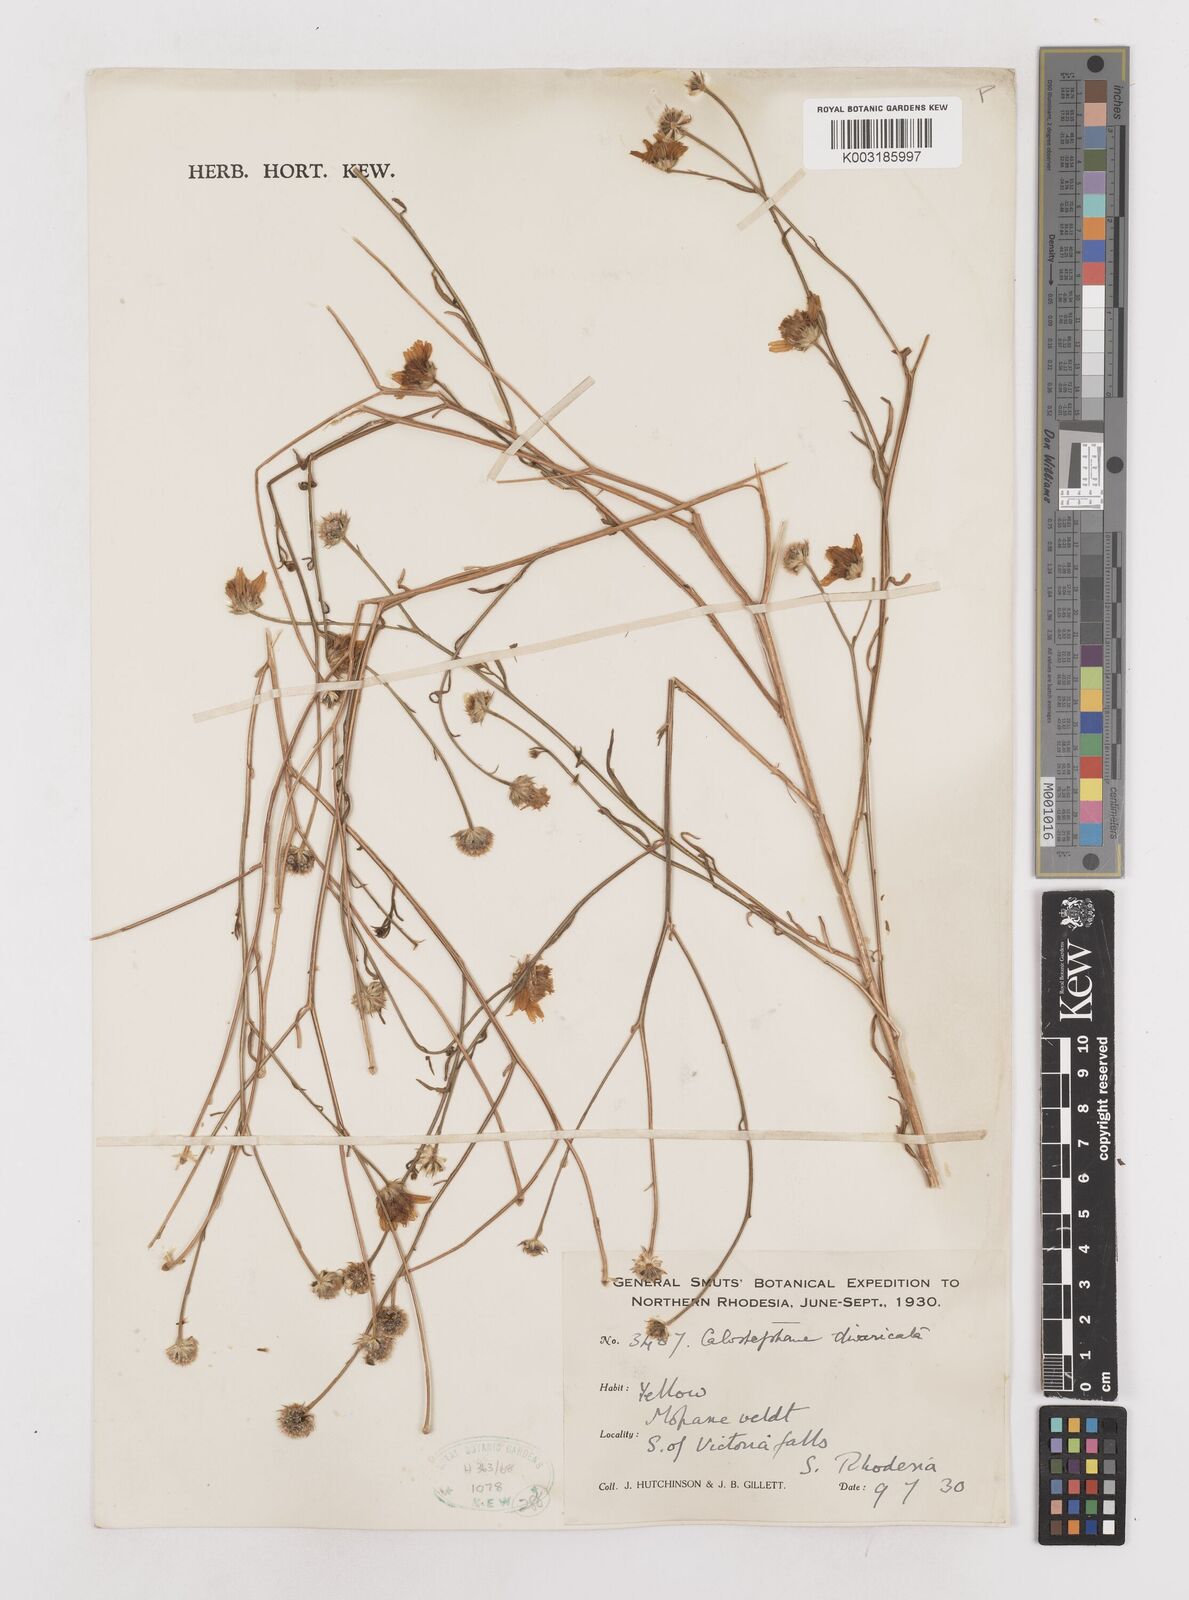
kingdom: Plantae
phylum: Tracheophyta
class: Magnoliopsida
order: Asterales
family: Asteraceae
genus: Calostephane
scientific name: Calostephane divaricata
